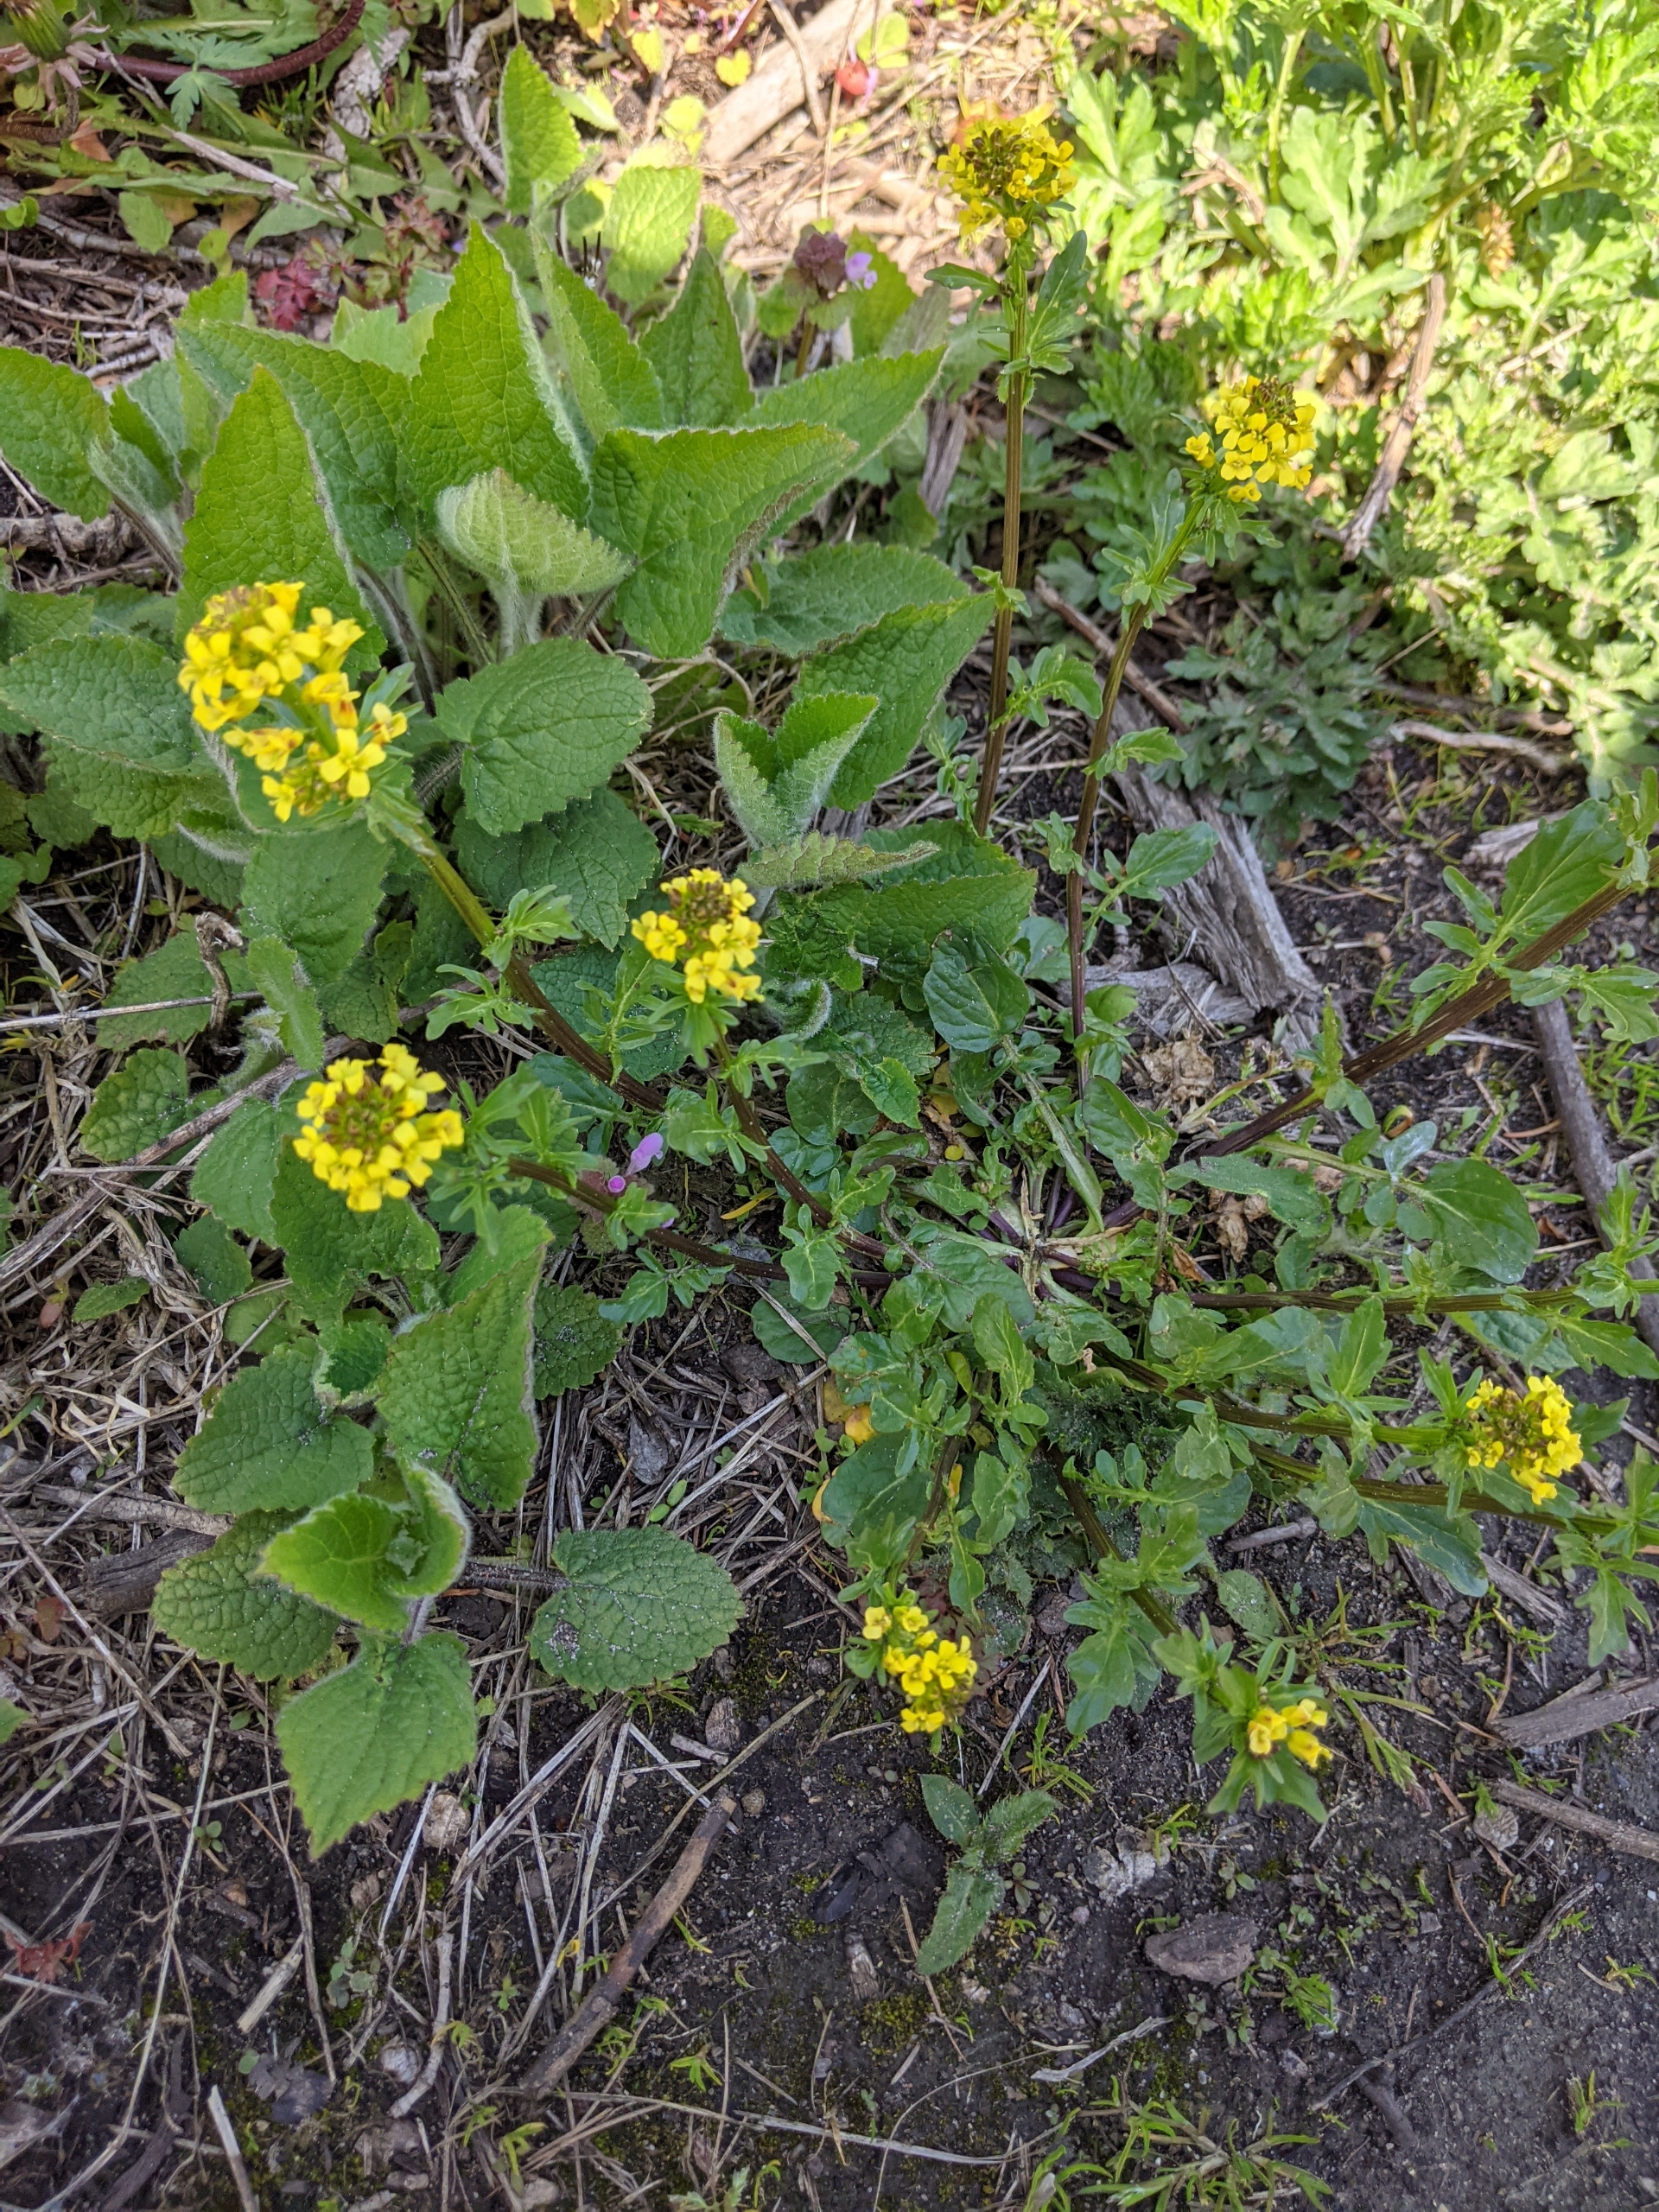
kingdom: Plantae
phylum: Tracheophyta
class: Magnoliopsida
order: Brassicales
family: Brassicaceae
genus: Barbarea
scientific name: Barbarea vulgaris
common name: Almindelig vinterkarse
